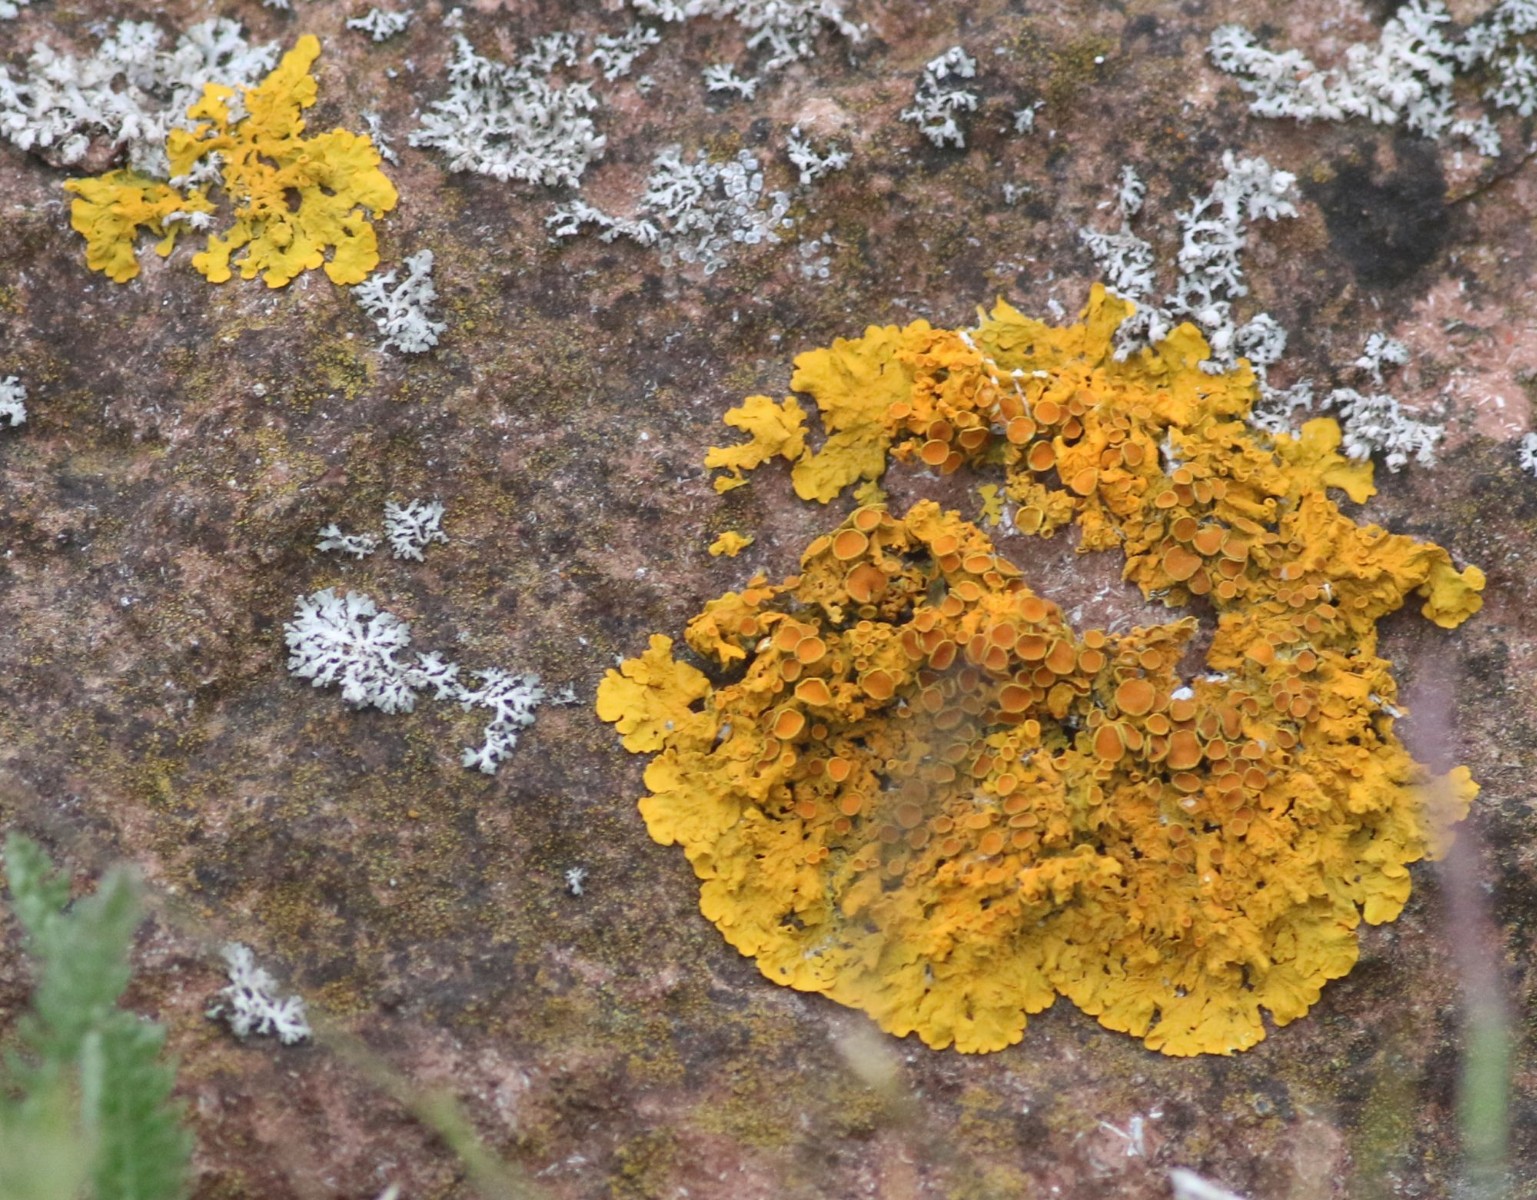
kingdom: Fungi
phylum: Ascomycota
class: Lecanoromycetes
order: Teloschistales
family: Teloschistaceae
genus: Xanthoria
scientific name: Xanthoria parietina
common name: almindelig væggelav
